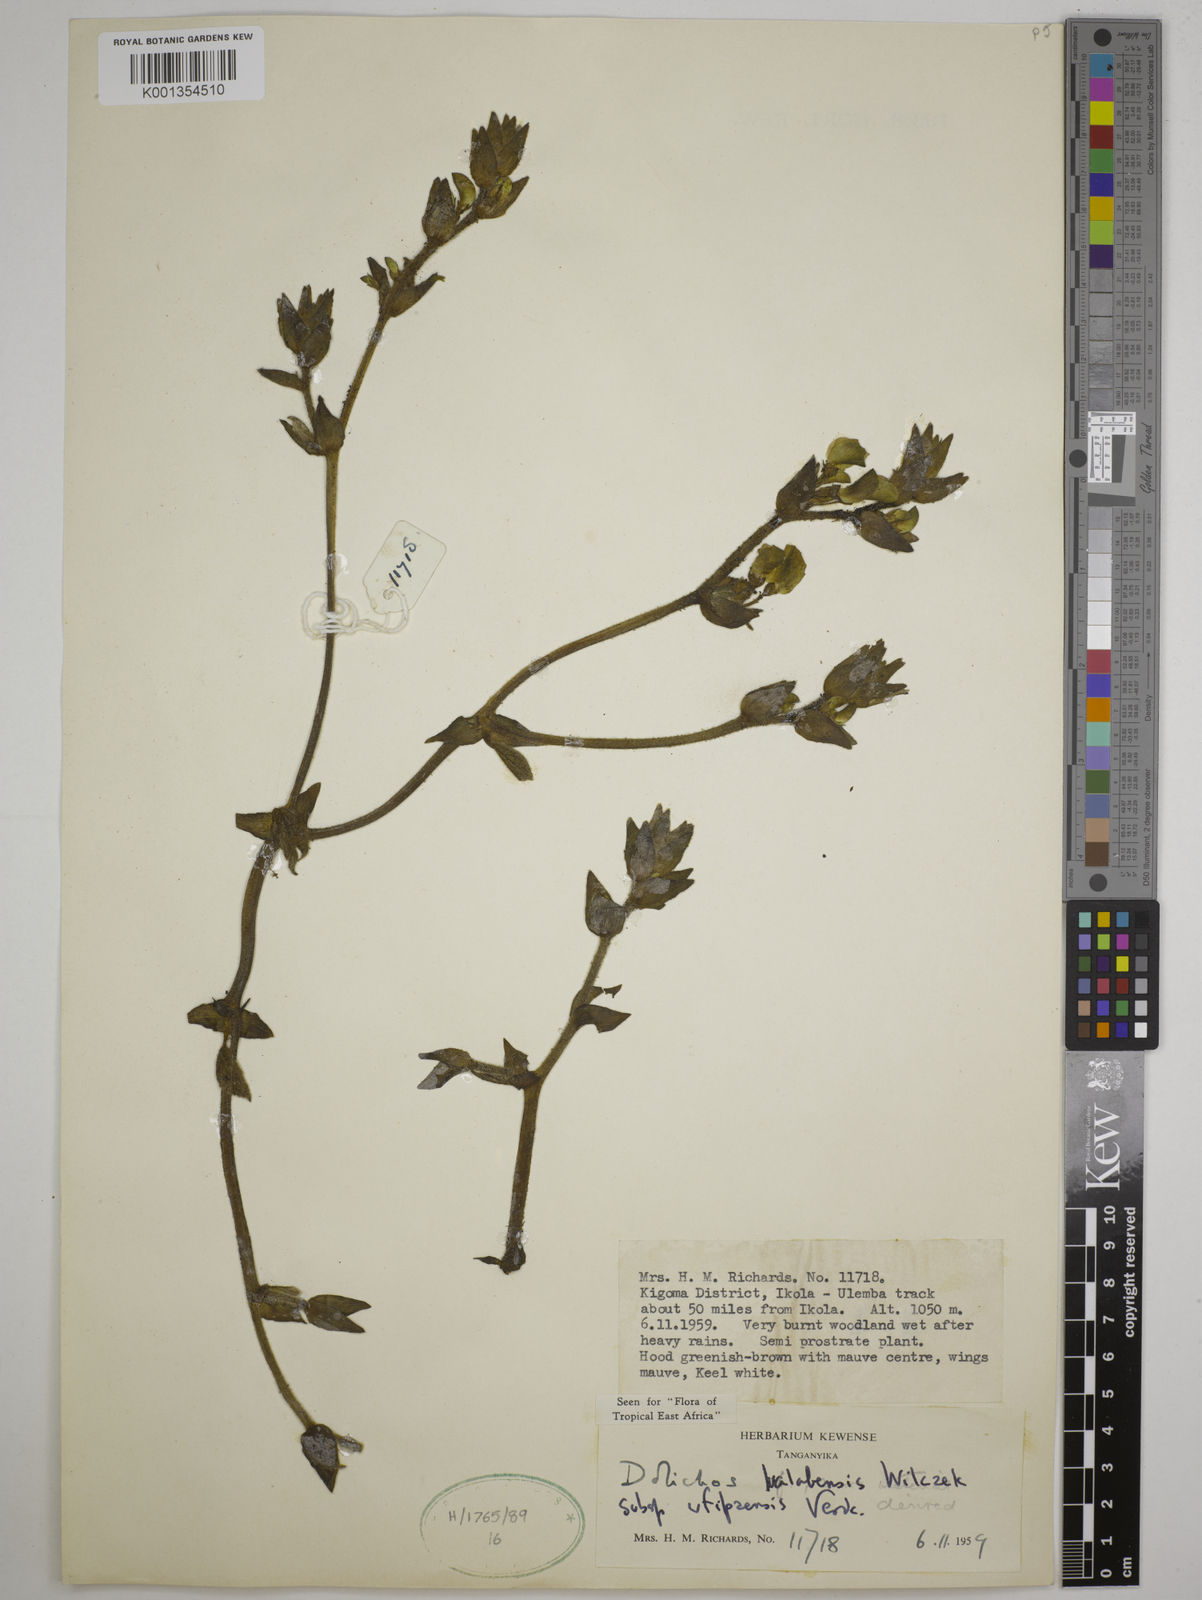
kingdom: Plantae
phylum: Tracheophyta
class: Magnoliopsida
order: Fabales
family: Fabaceae
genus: Dolichos
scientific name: Dolichos
